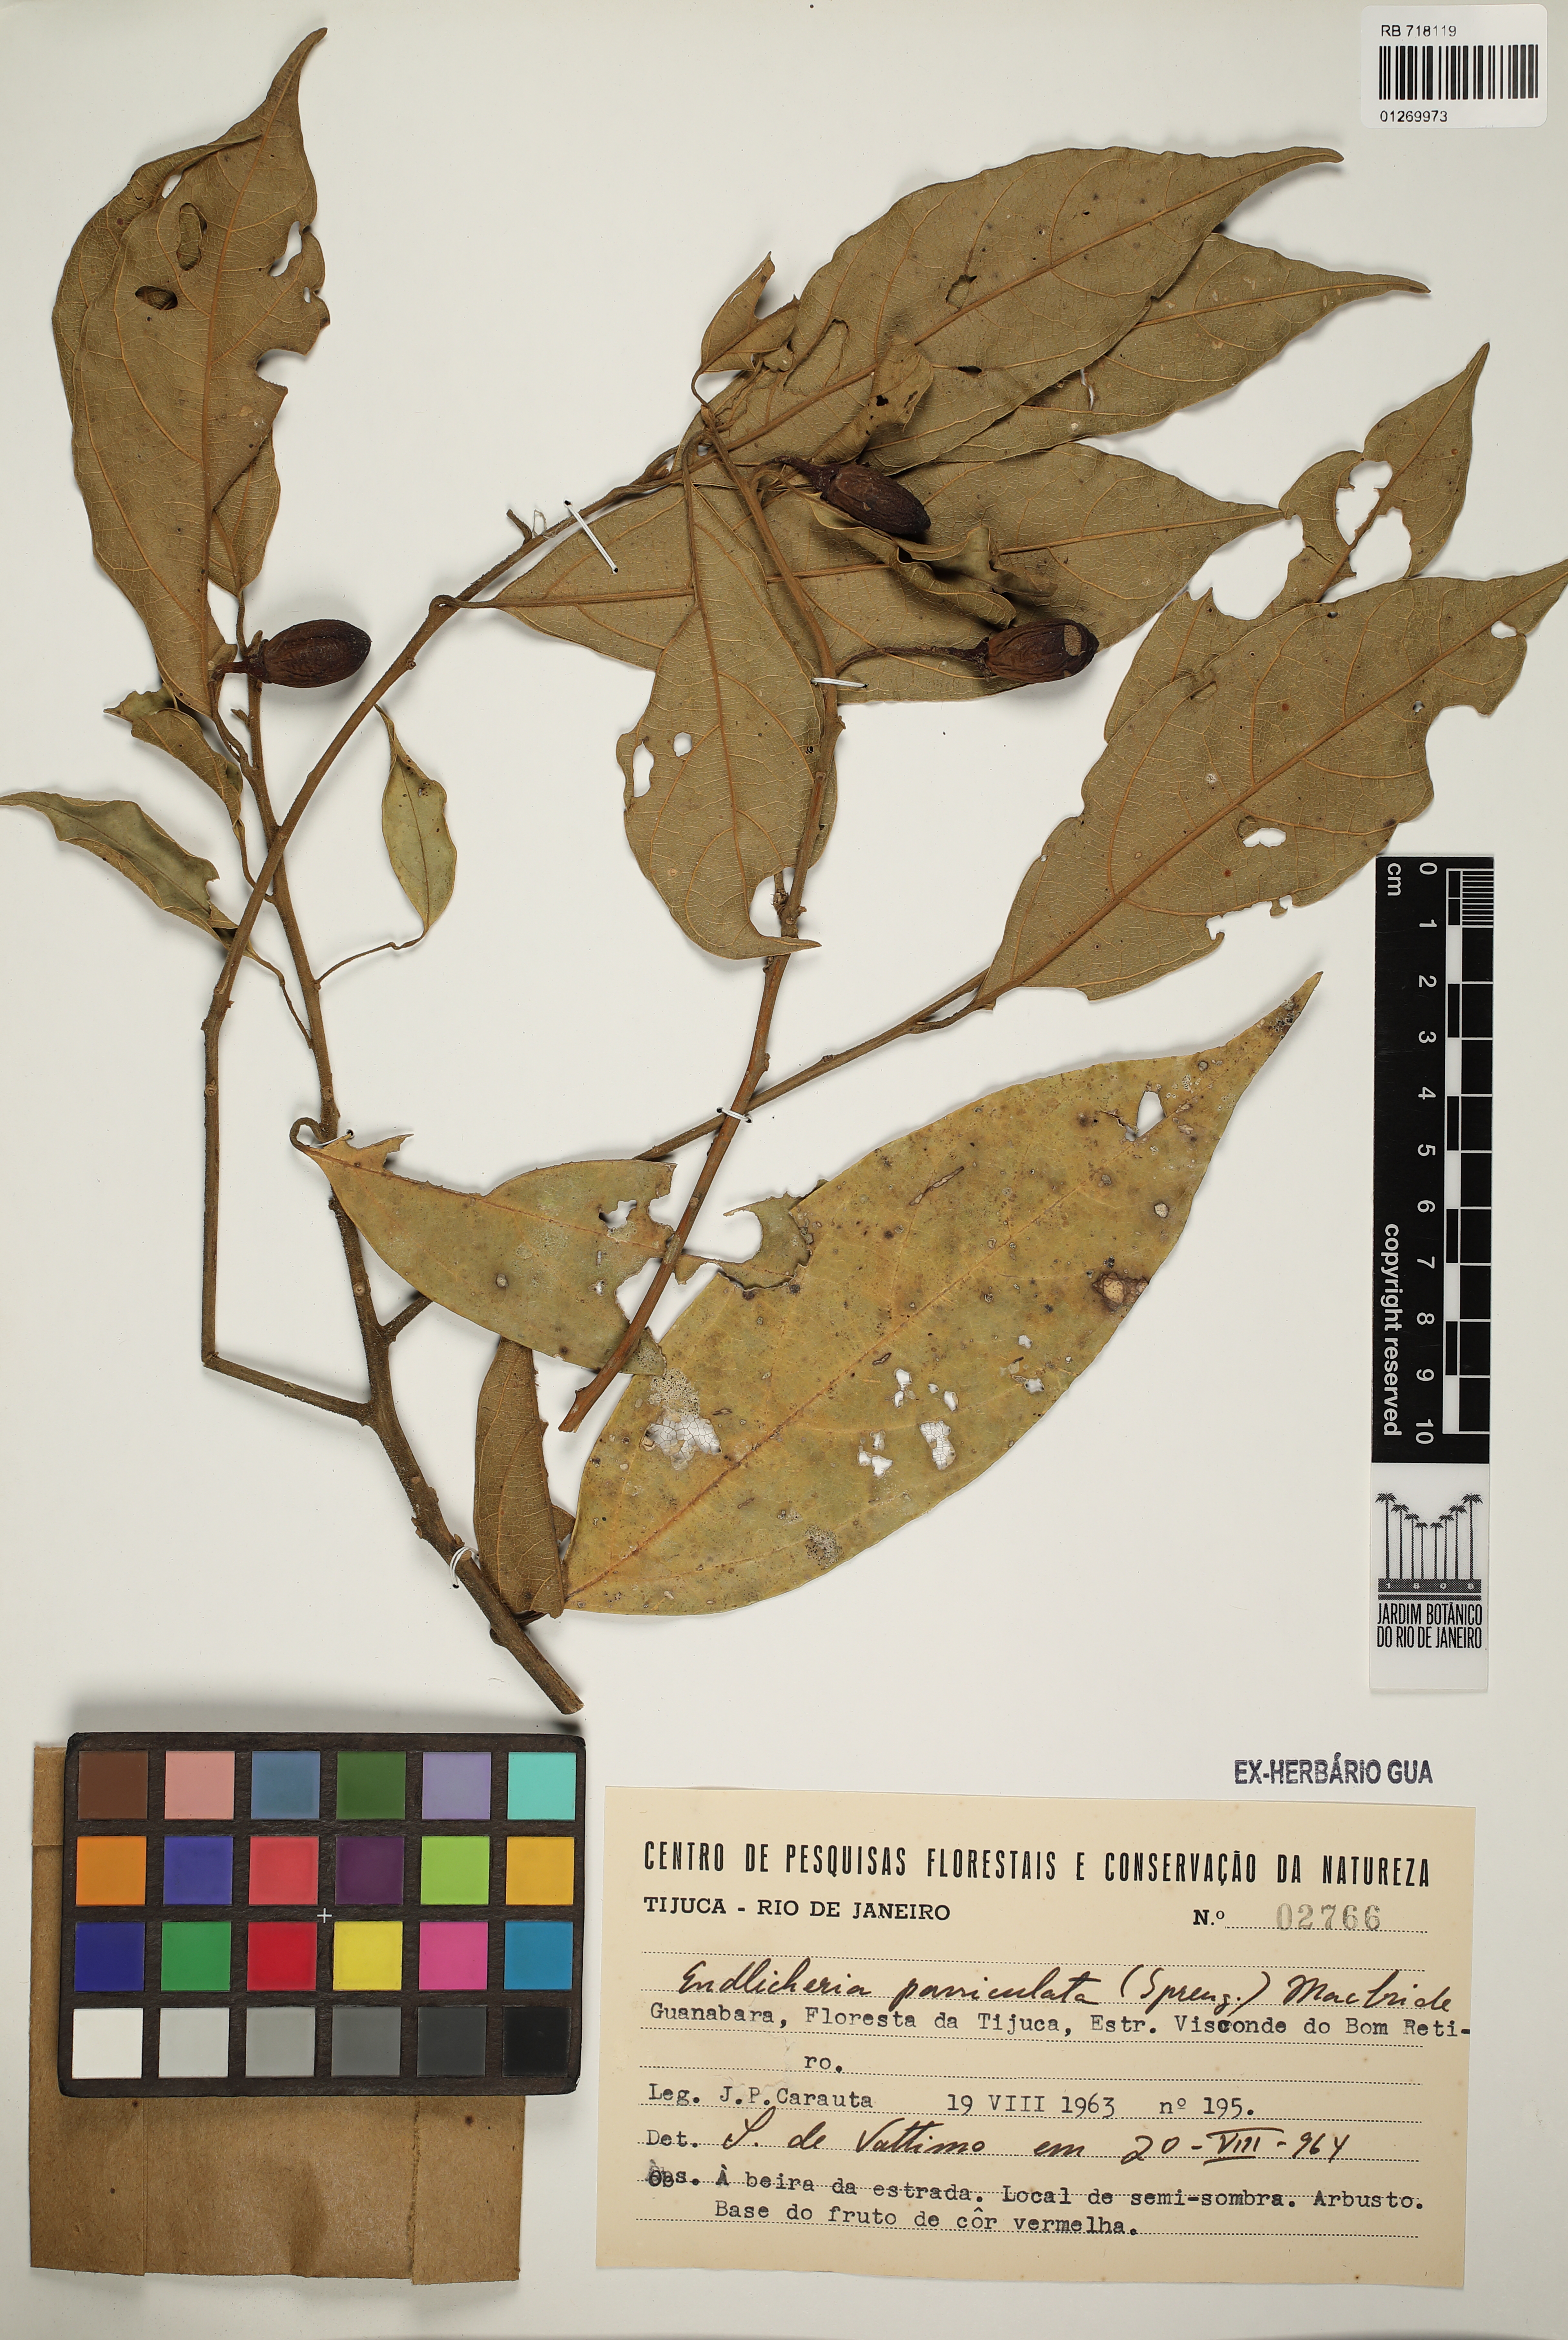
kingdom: Plantae
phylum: Tracheophyta
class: Magnoliopsida
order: Laurales
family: Lauraceae
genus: Endlicheria
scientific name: Endlicheria paniculata
